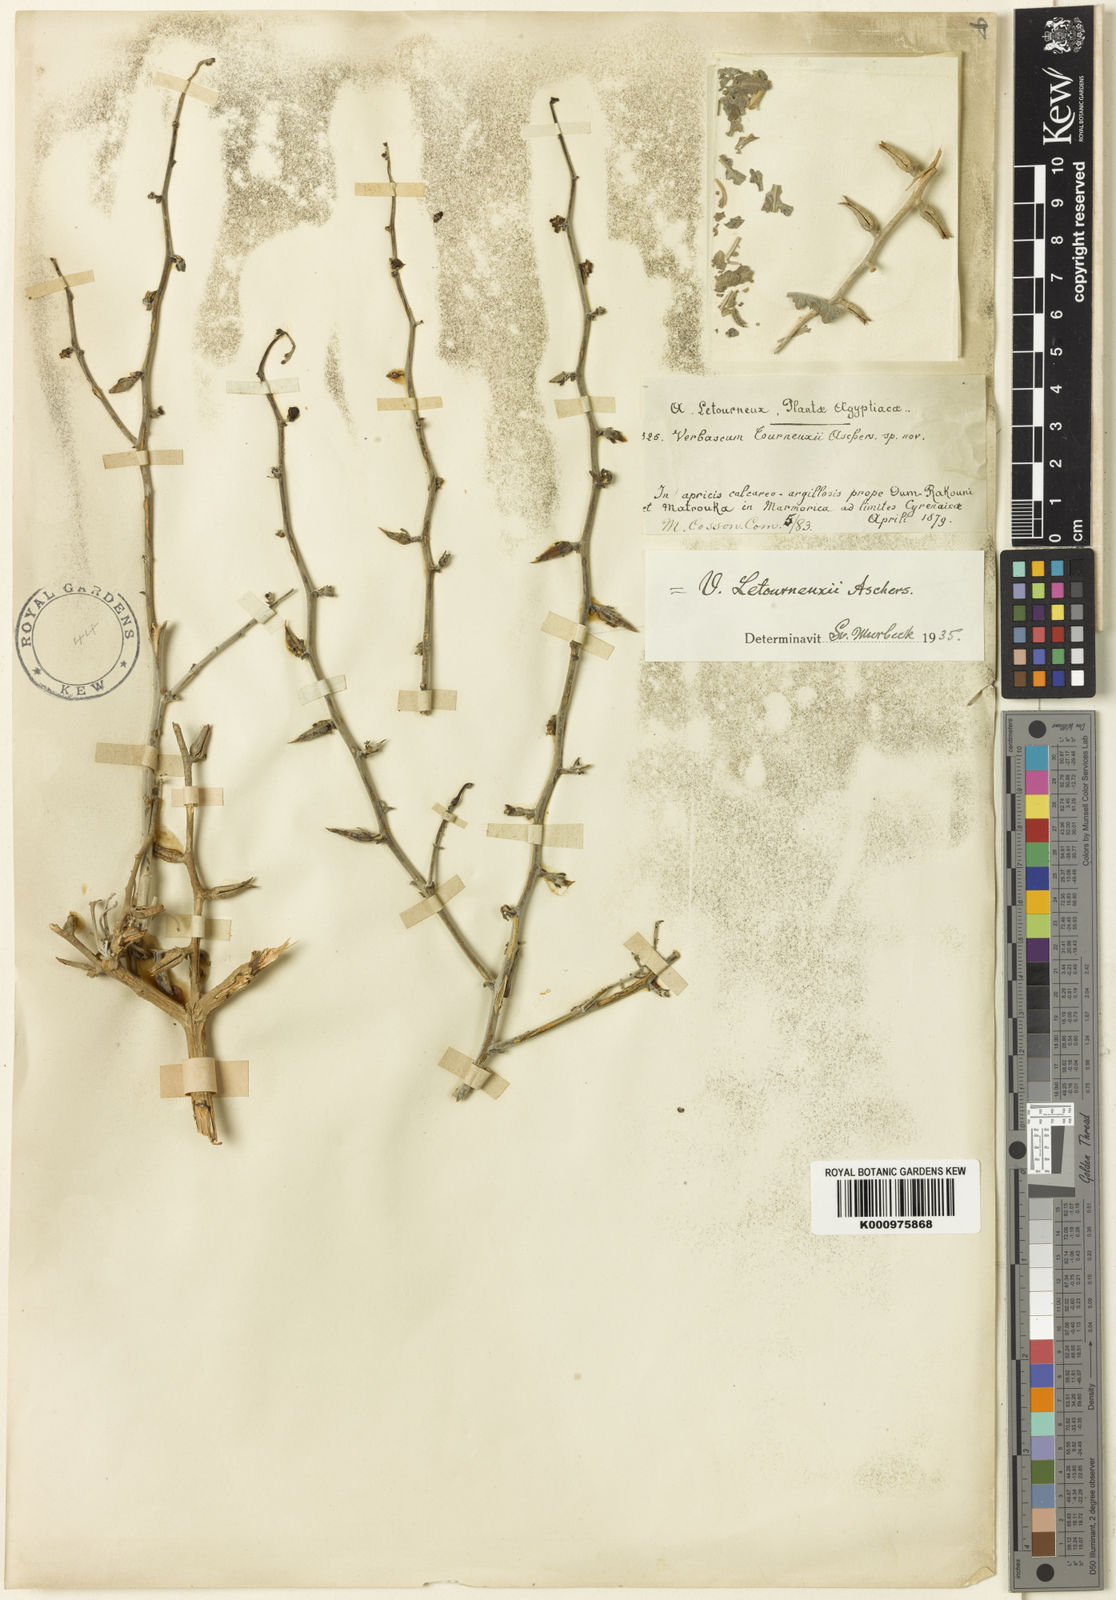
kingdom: Plantae
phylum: Tracheophyta
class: Magnoliopsida
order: Lamiales
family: Scrophulariaceae
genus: Verbascum
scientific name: Verbascum letourneuxii
